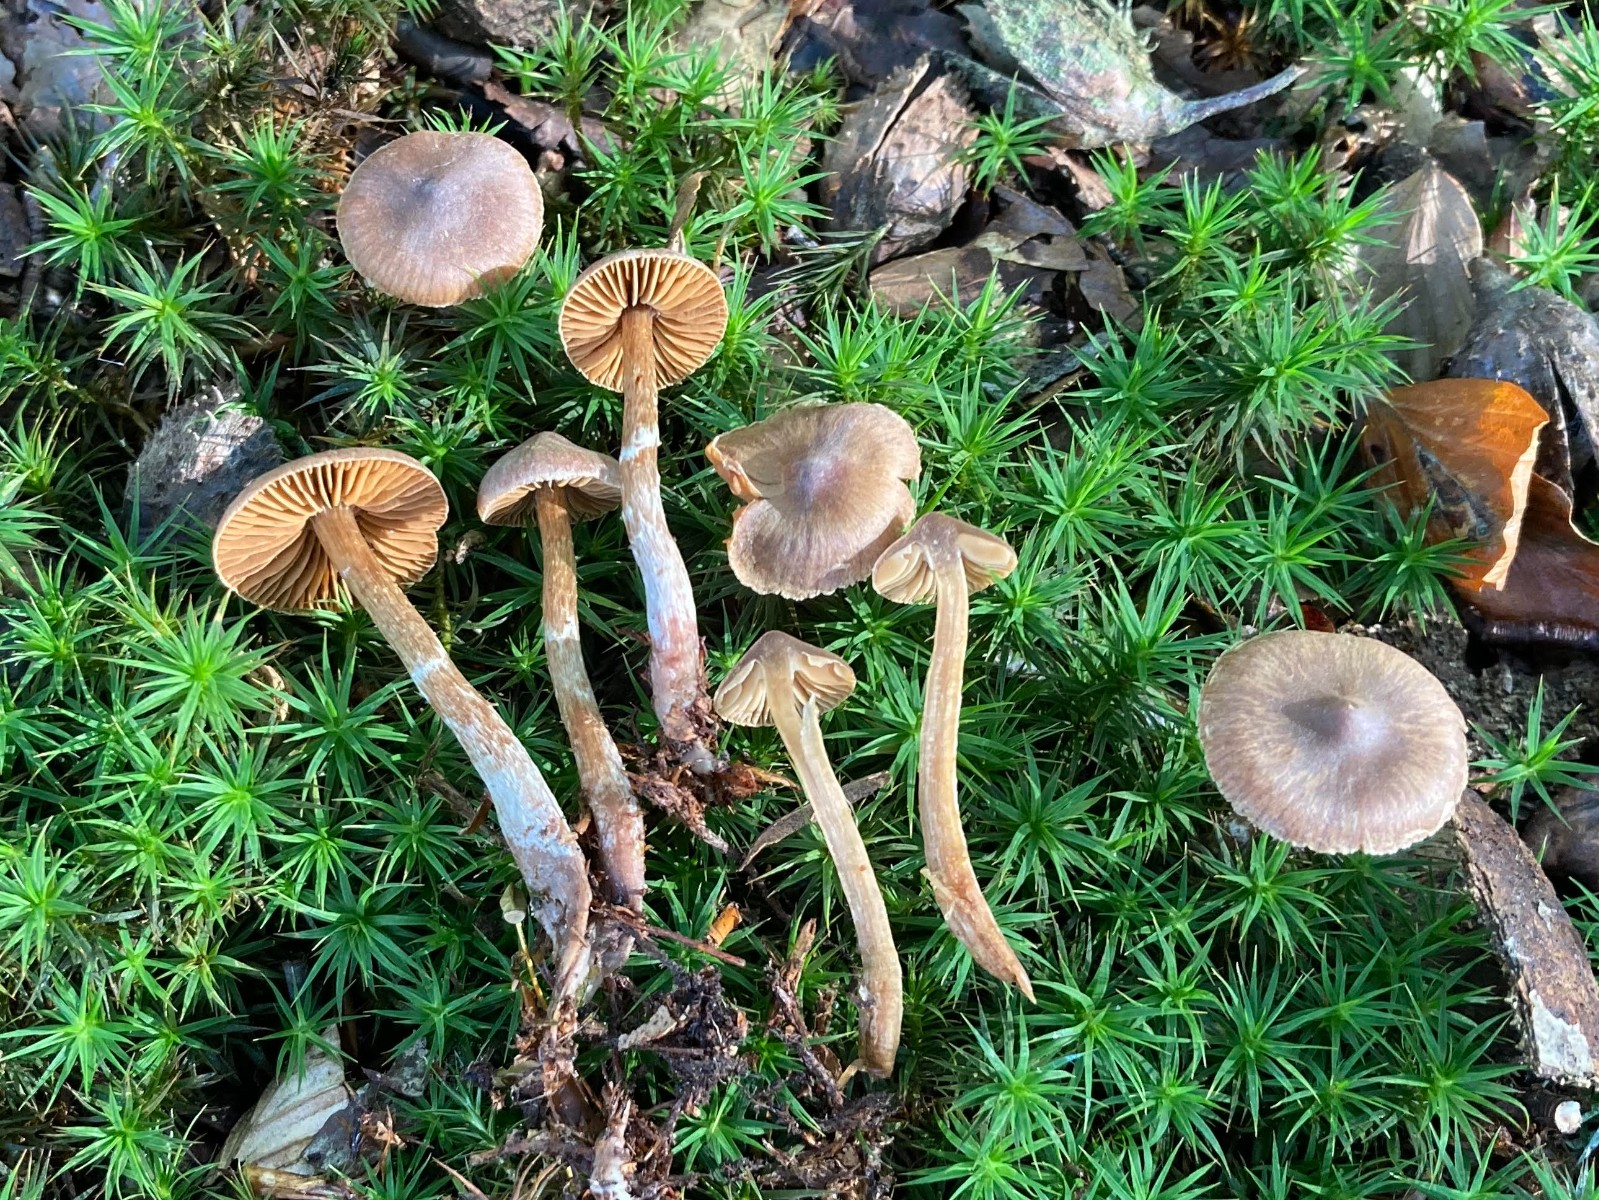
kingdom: Fungi
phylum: Basidiomycota
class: Agaricomycetes
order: Agaricales
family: Cortinariaceae
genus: Cortinarius
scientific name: Cortinarius pilatii
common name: Piláts slørhat
